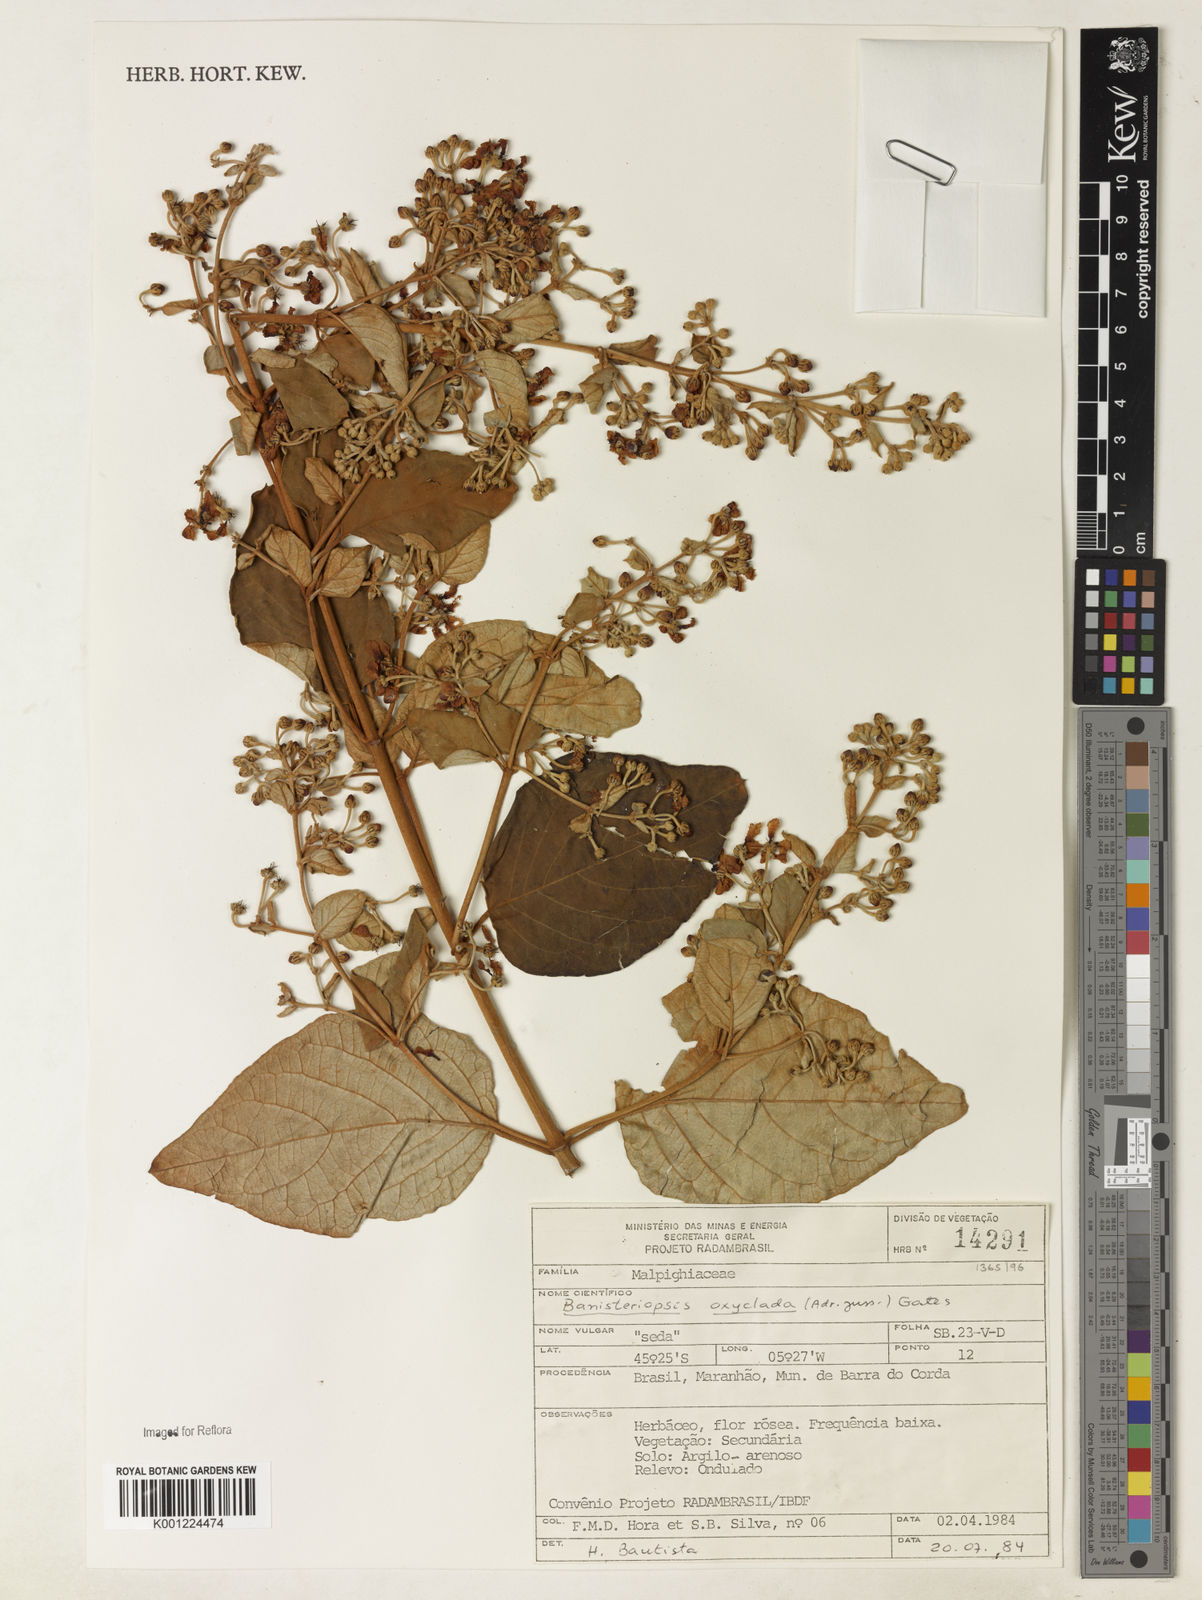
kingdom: Plantae
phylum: Tracheophyta
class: Magnoliopsida
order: Malpighiales
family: Malpighiaceae
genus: Banisteriopsis
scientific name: Banisteriopsis oxyclada
